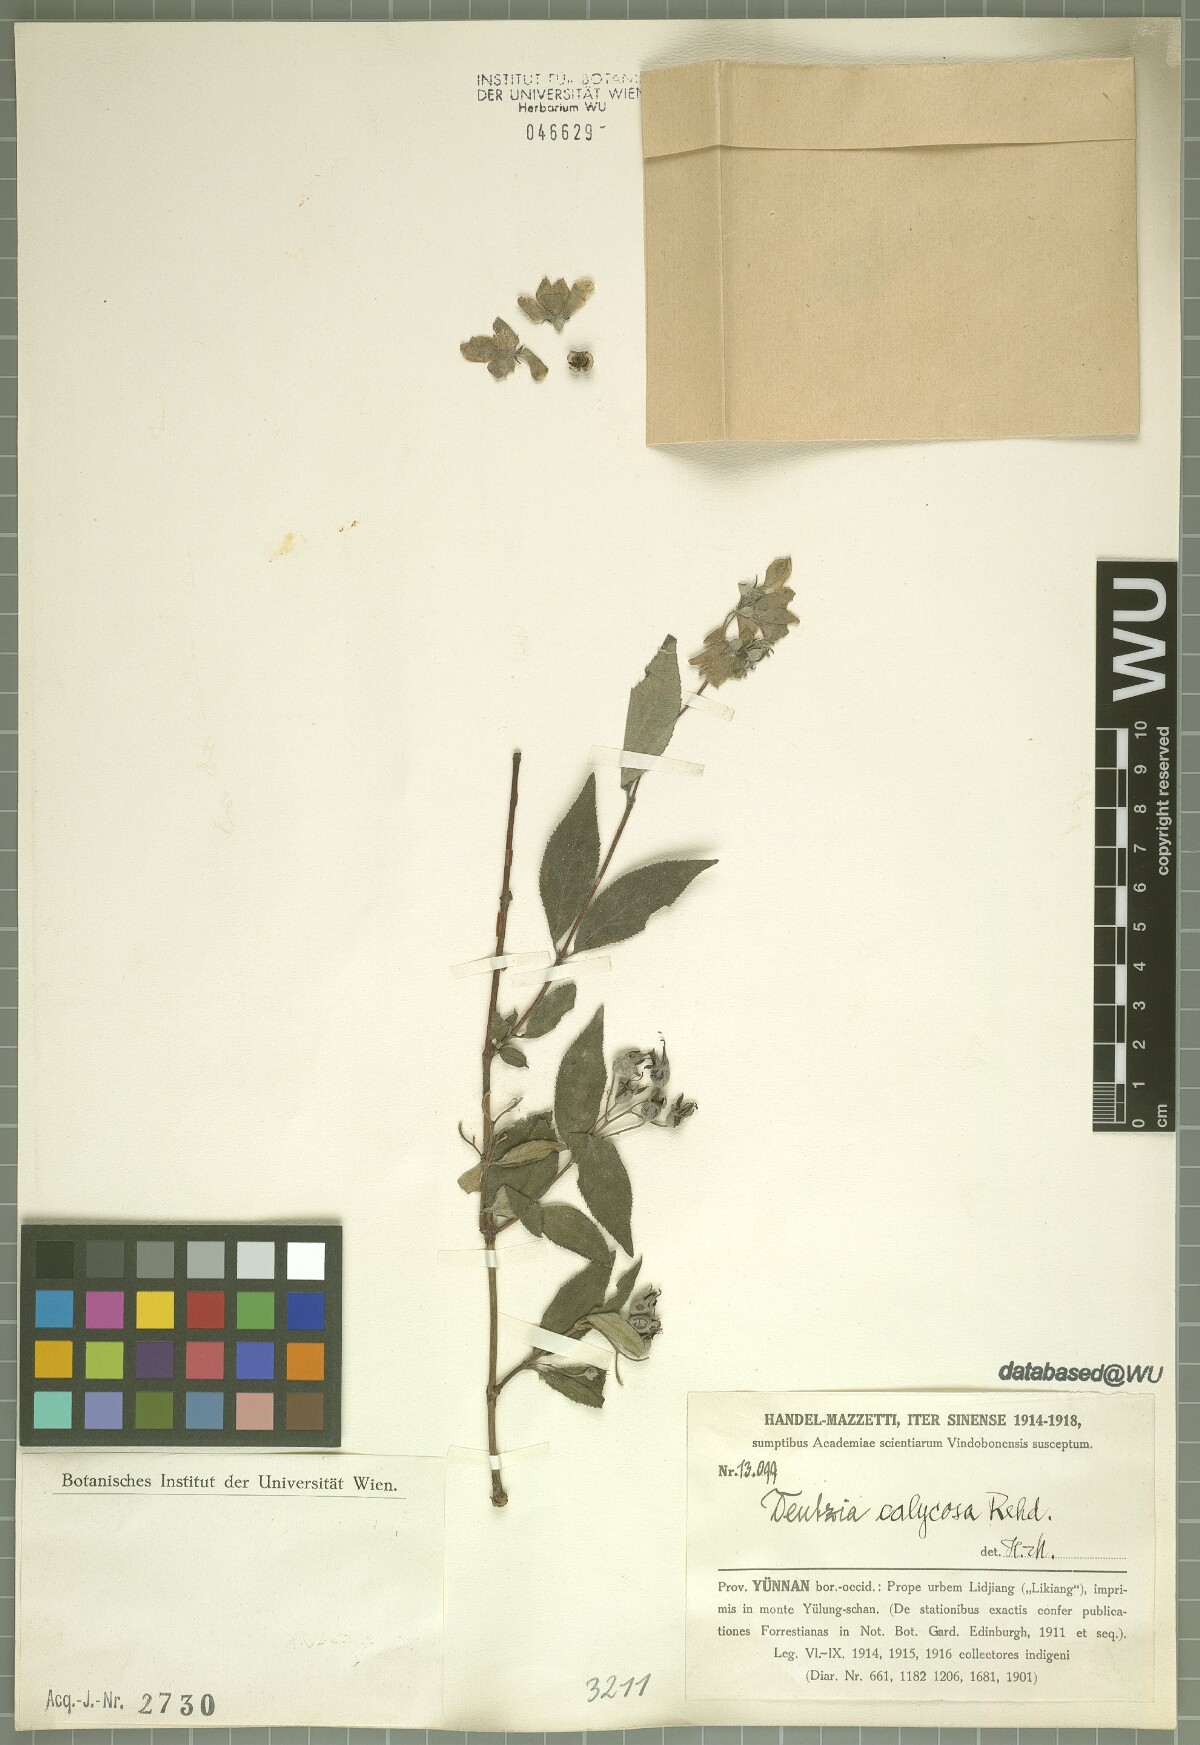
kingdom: Plantae
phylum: Tracheophyta
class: Magnoliopsida
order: Cornales
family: Hydrangeaceae
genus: Deutzia
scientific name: Deutzia calycosa
